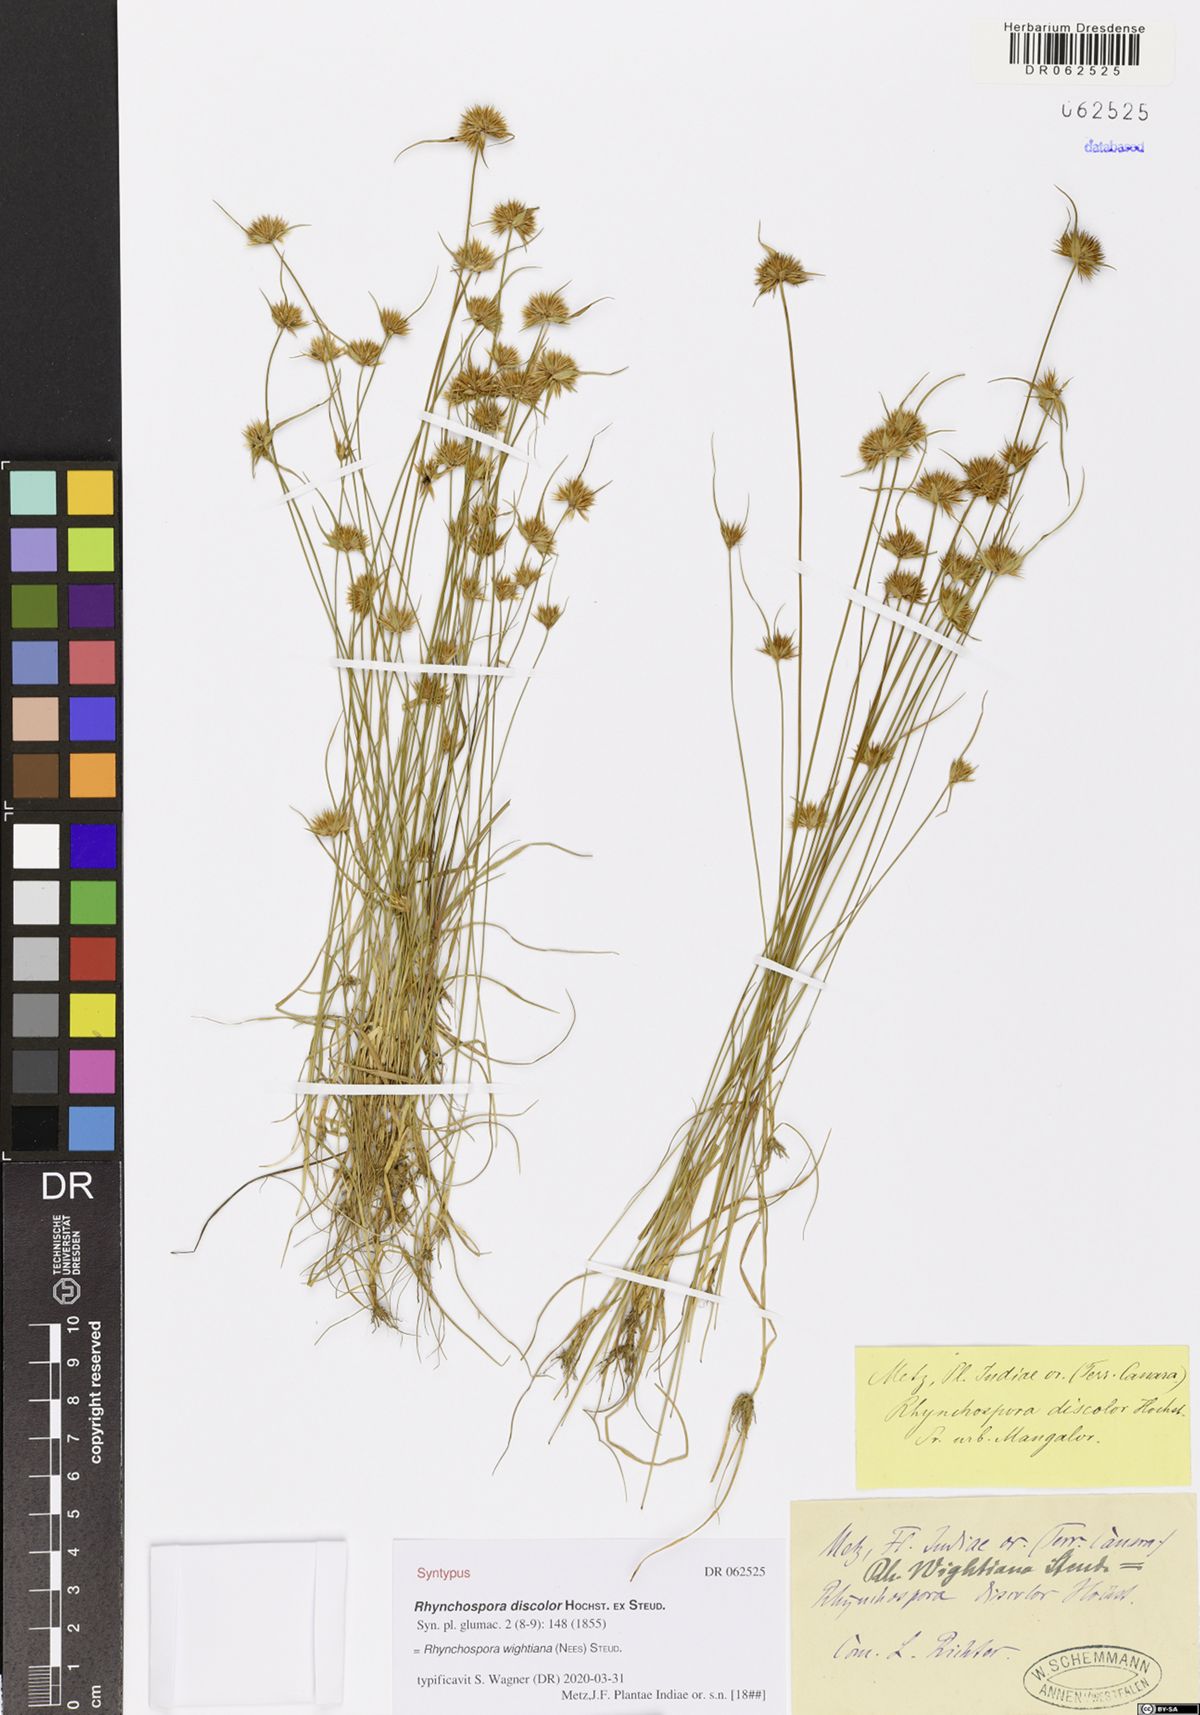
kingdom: Plantae
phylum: Tracheophyta
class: Liliopsida
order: Poales
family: Cyperaceae
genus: Rhynchospora
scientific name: Rhynchospora wightiana
